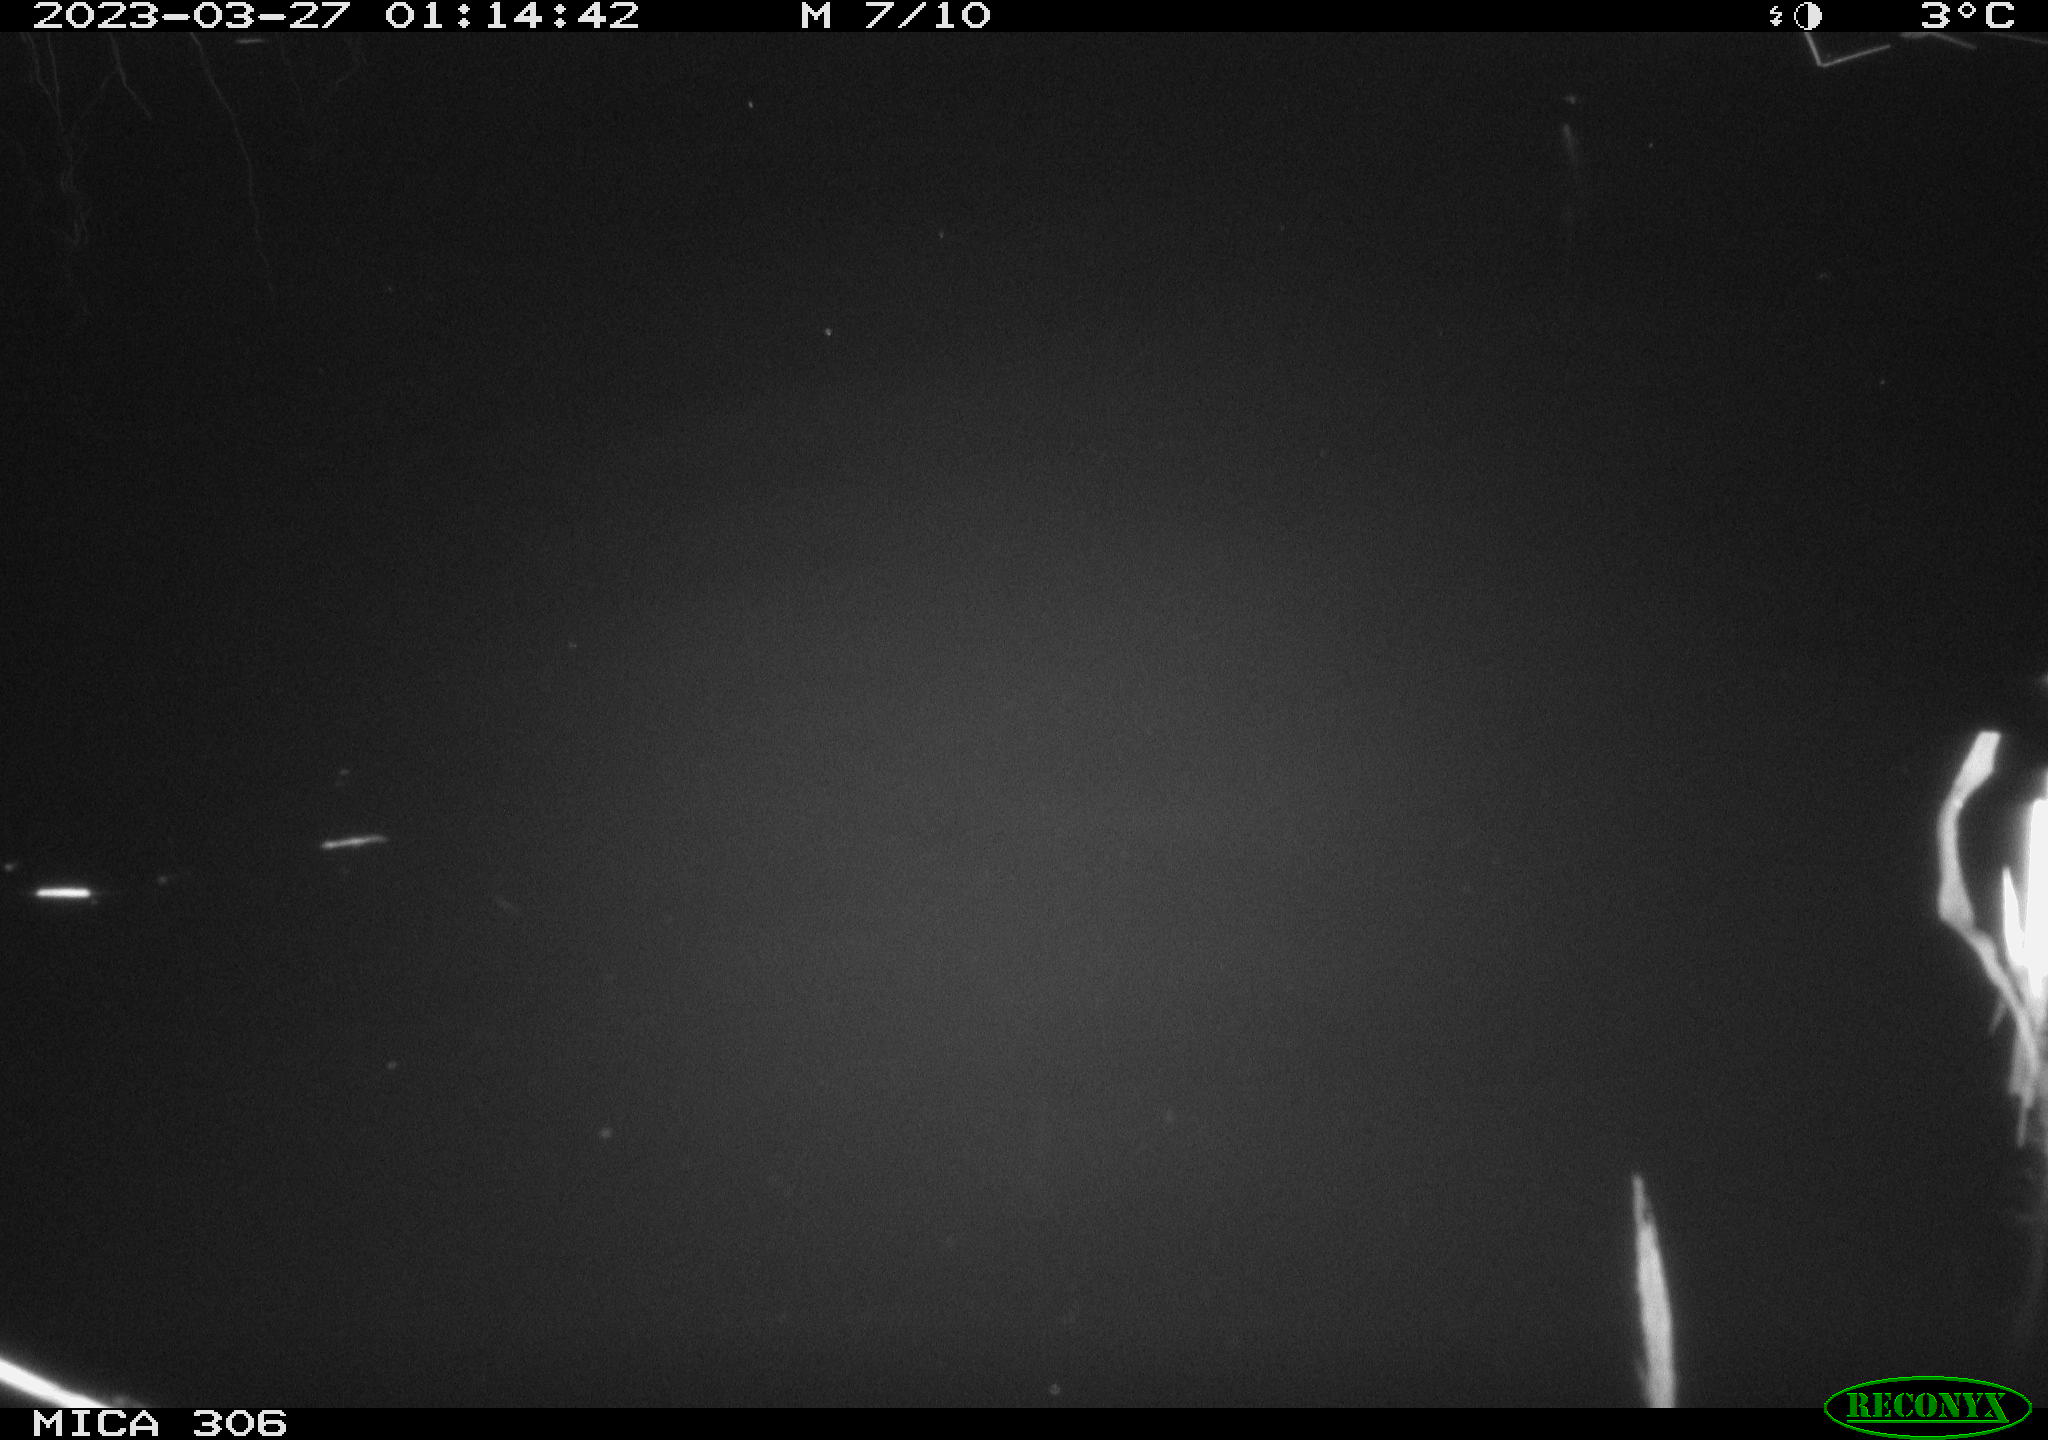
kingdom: Animalia
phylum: Chordata
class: Aves
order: Anseriformes
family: Anatidae
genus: Anas
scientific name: Anas
